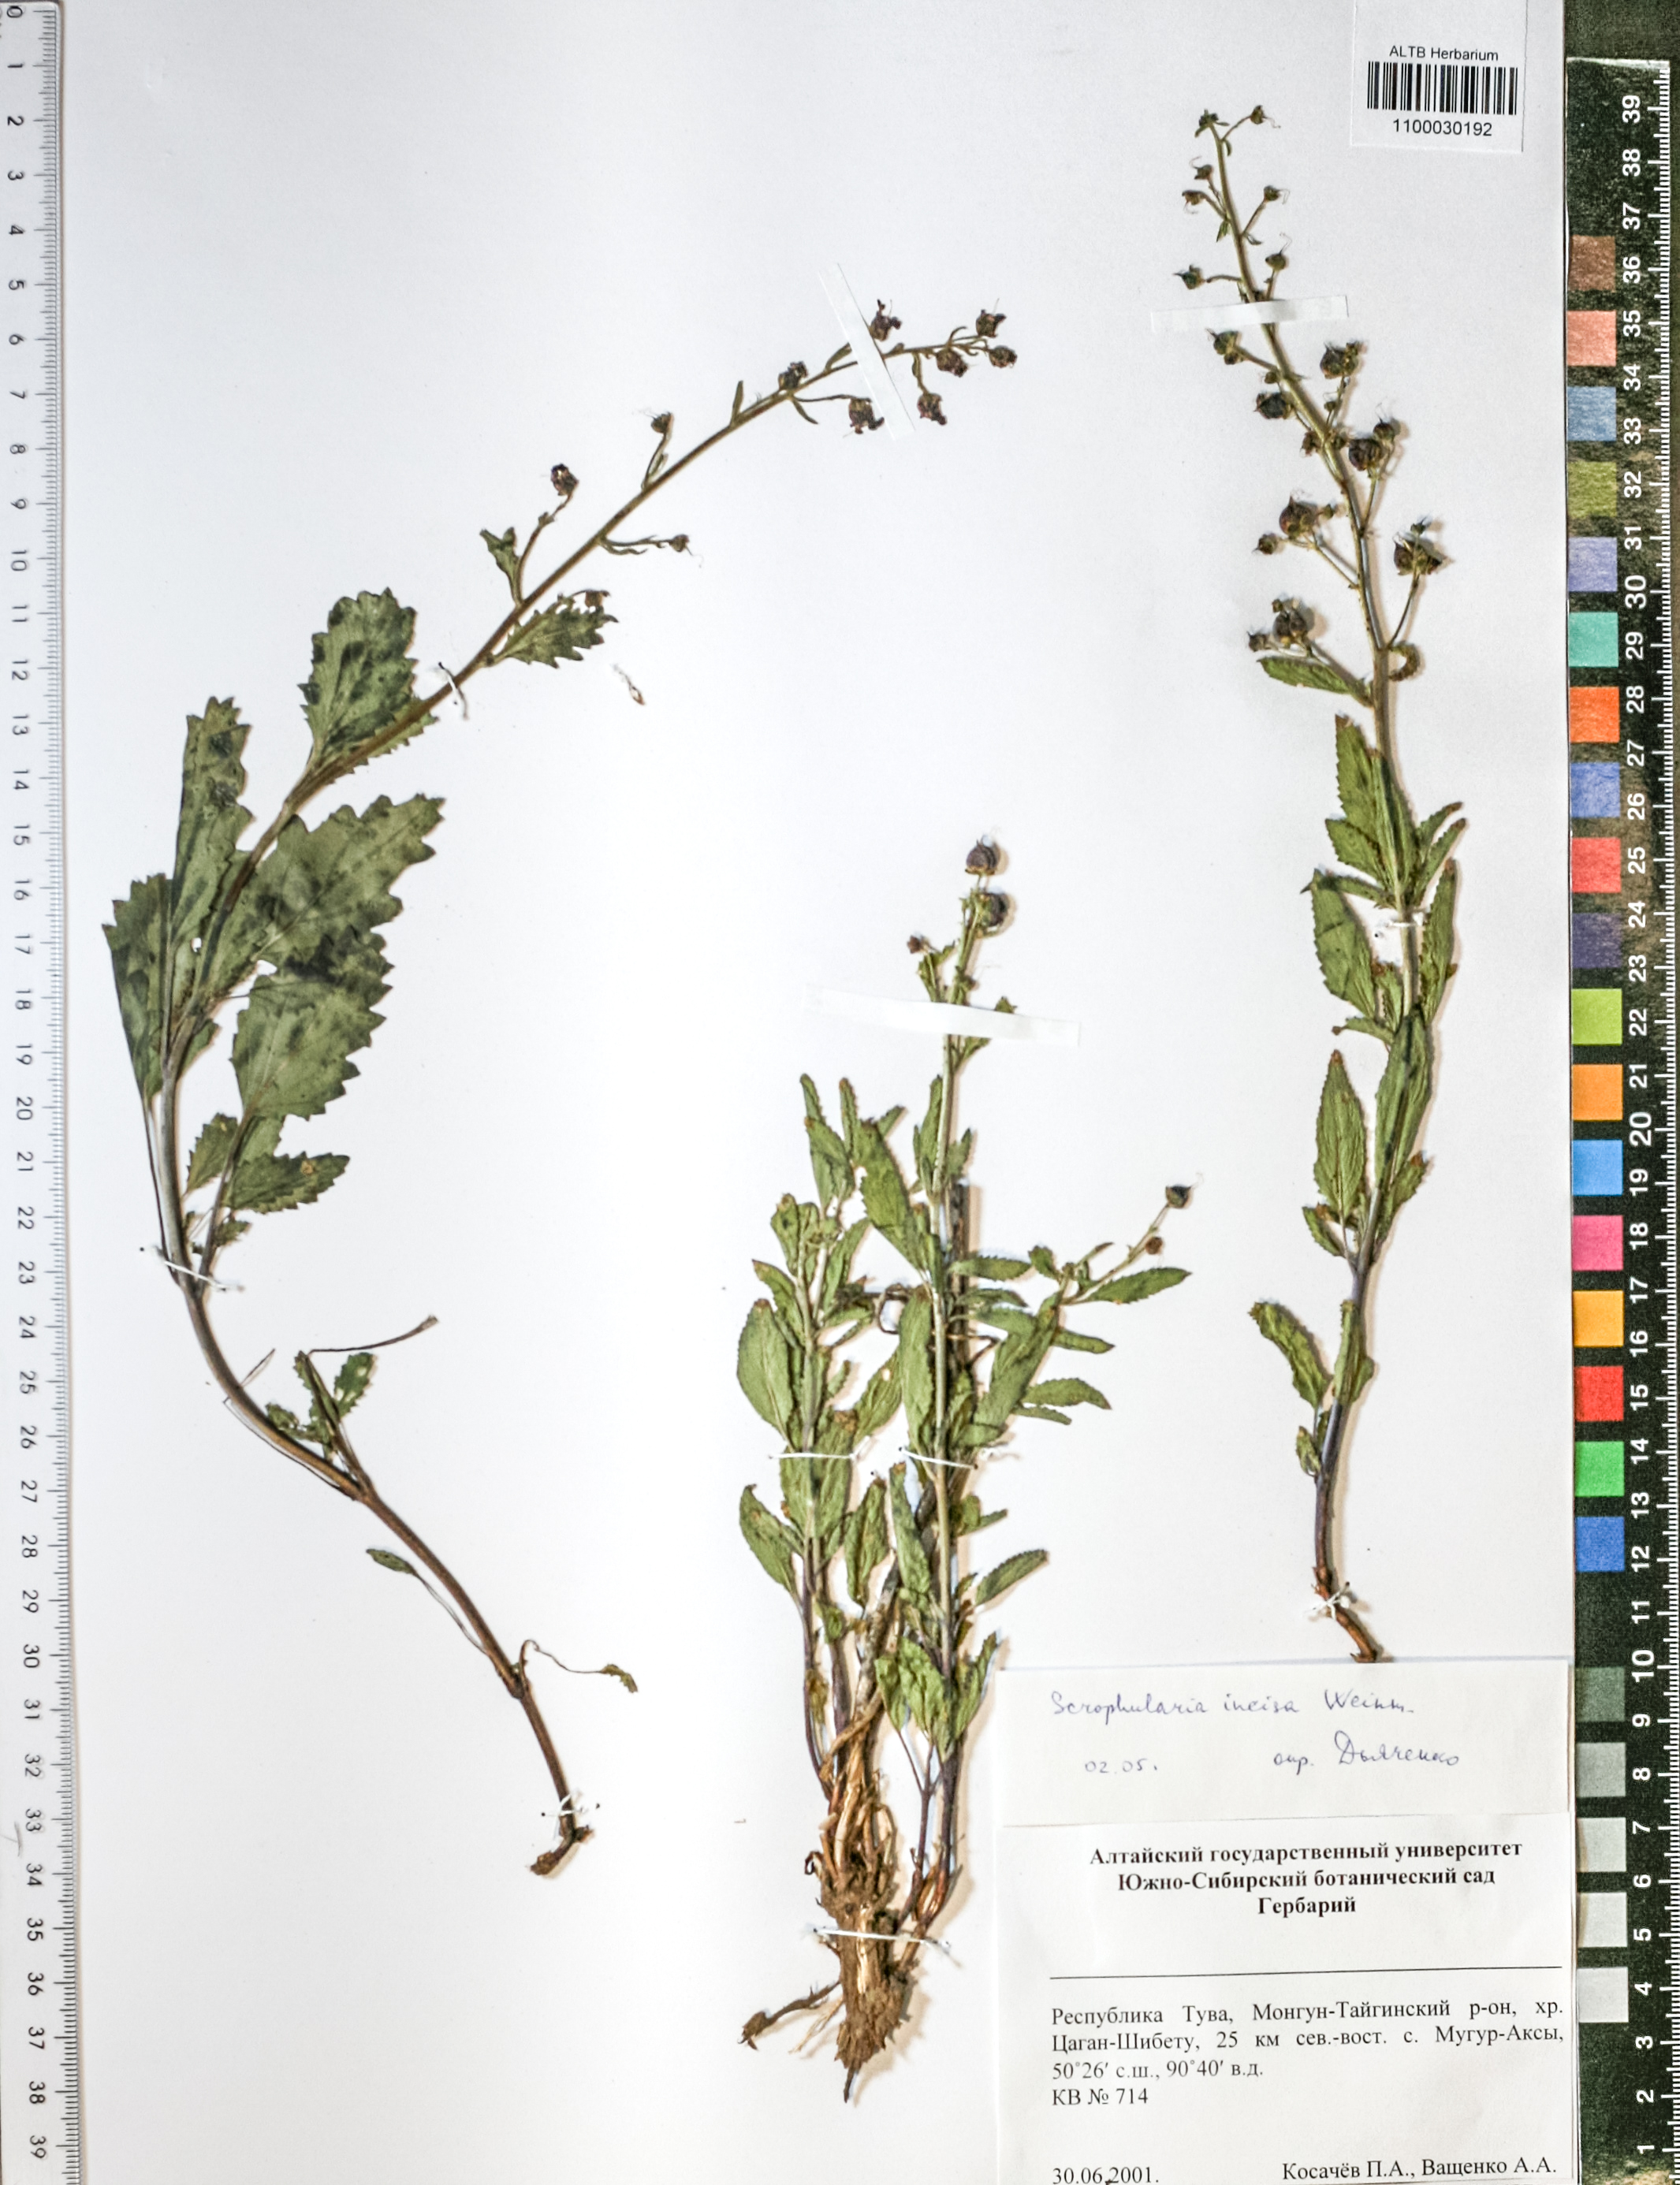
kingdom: Plantae
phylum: Tracheophyta
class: Magnoliopsida
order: Lamiales
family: Scrophulariaceae
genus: Scrophularia
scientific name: Scrophularia incisa
